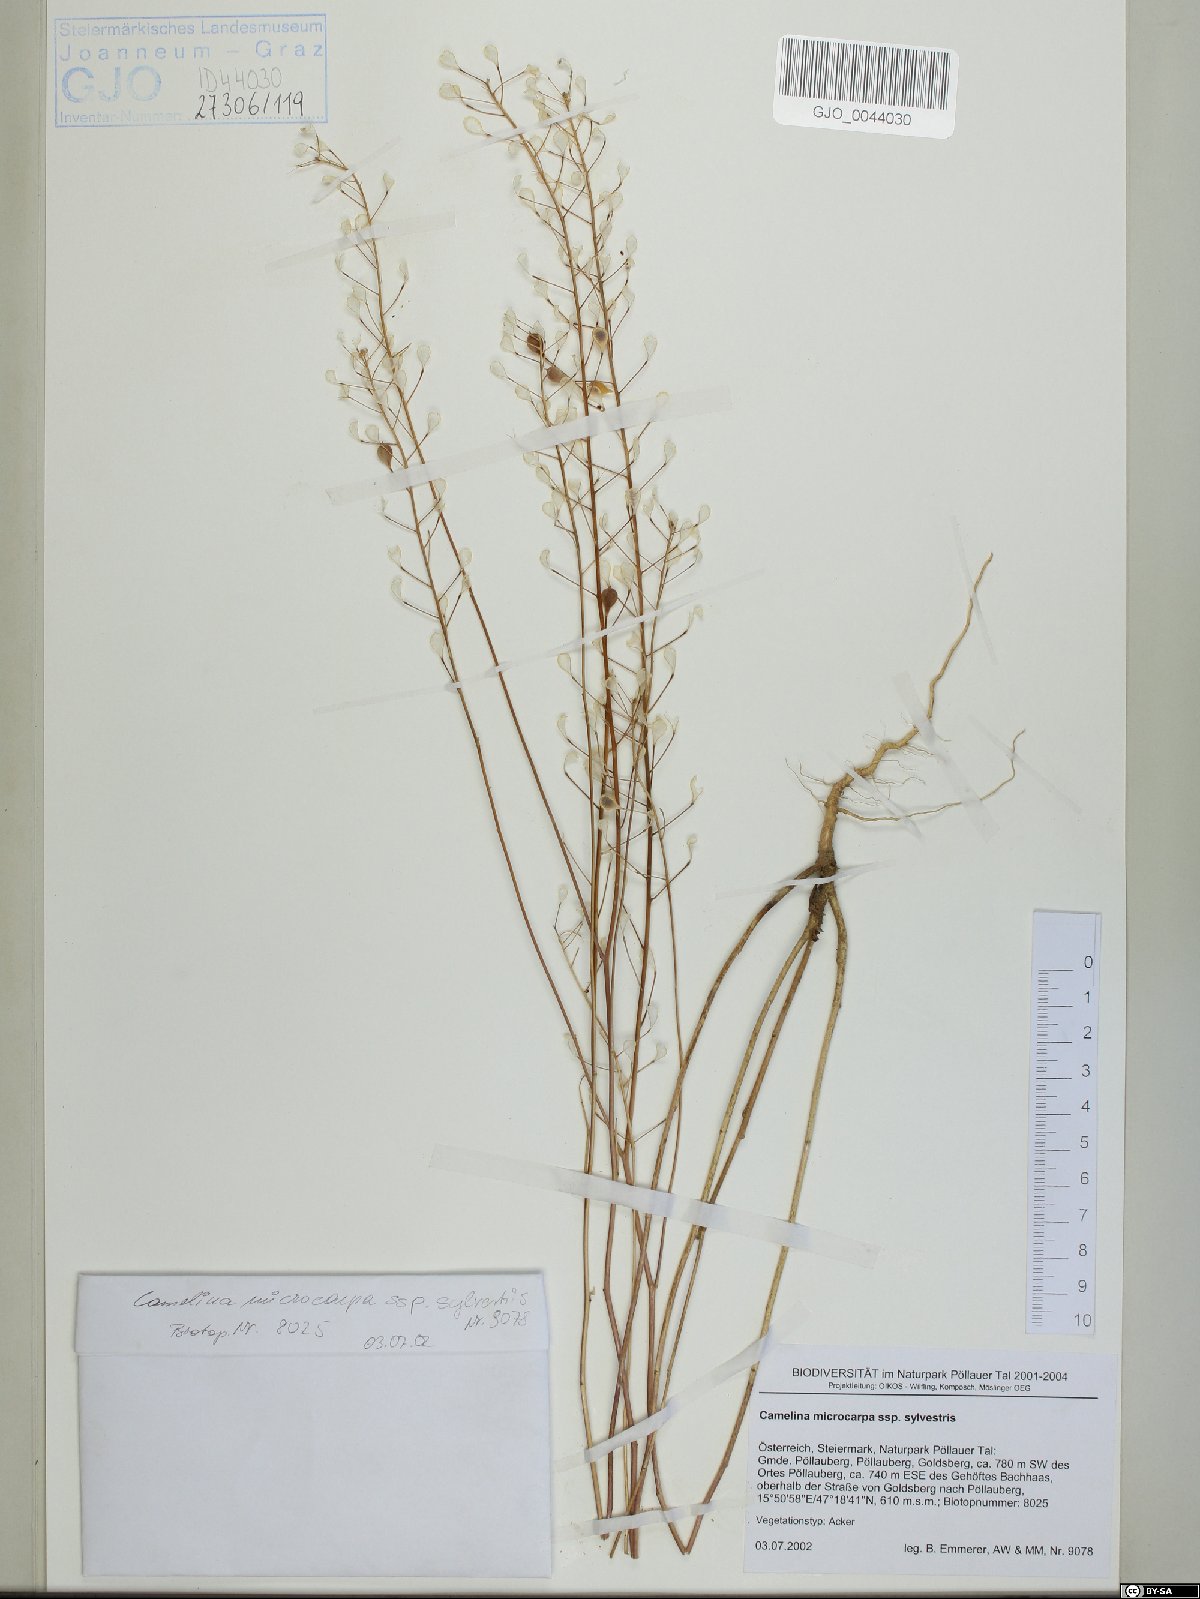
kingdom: Plantae
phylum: Tracheophyta
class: Magnoliopsida
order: Brassicales
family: Brassicaceae
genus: Camelina
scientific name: Camelina microcarpa
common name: Lesser gold-of-pleasure
